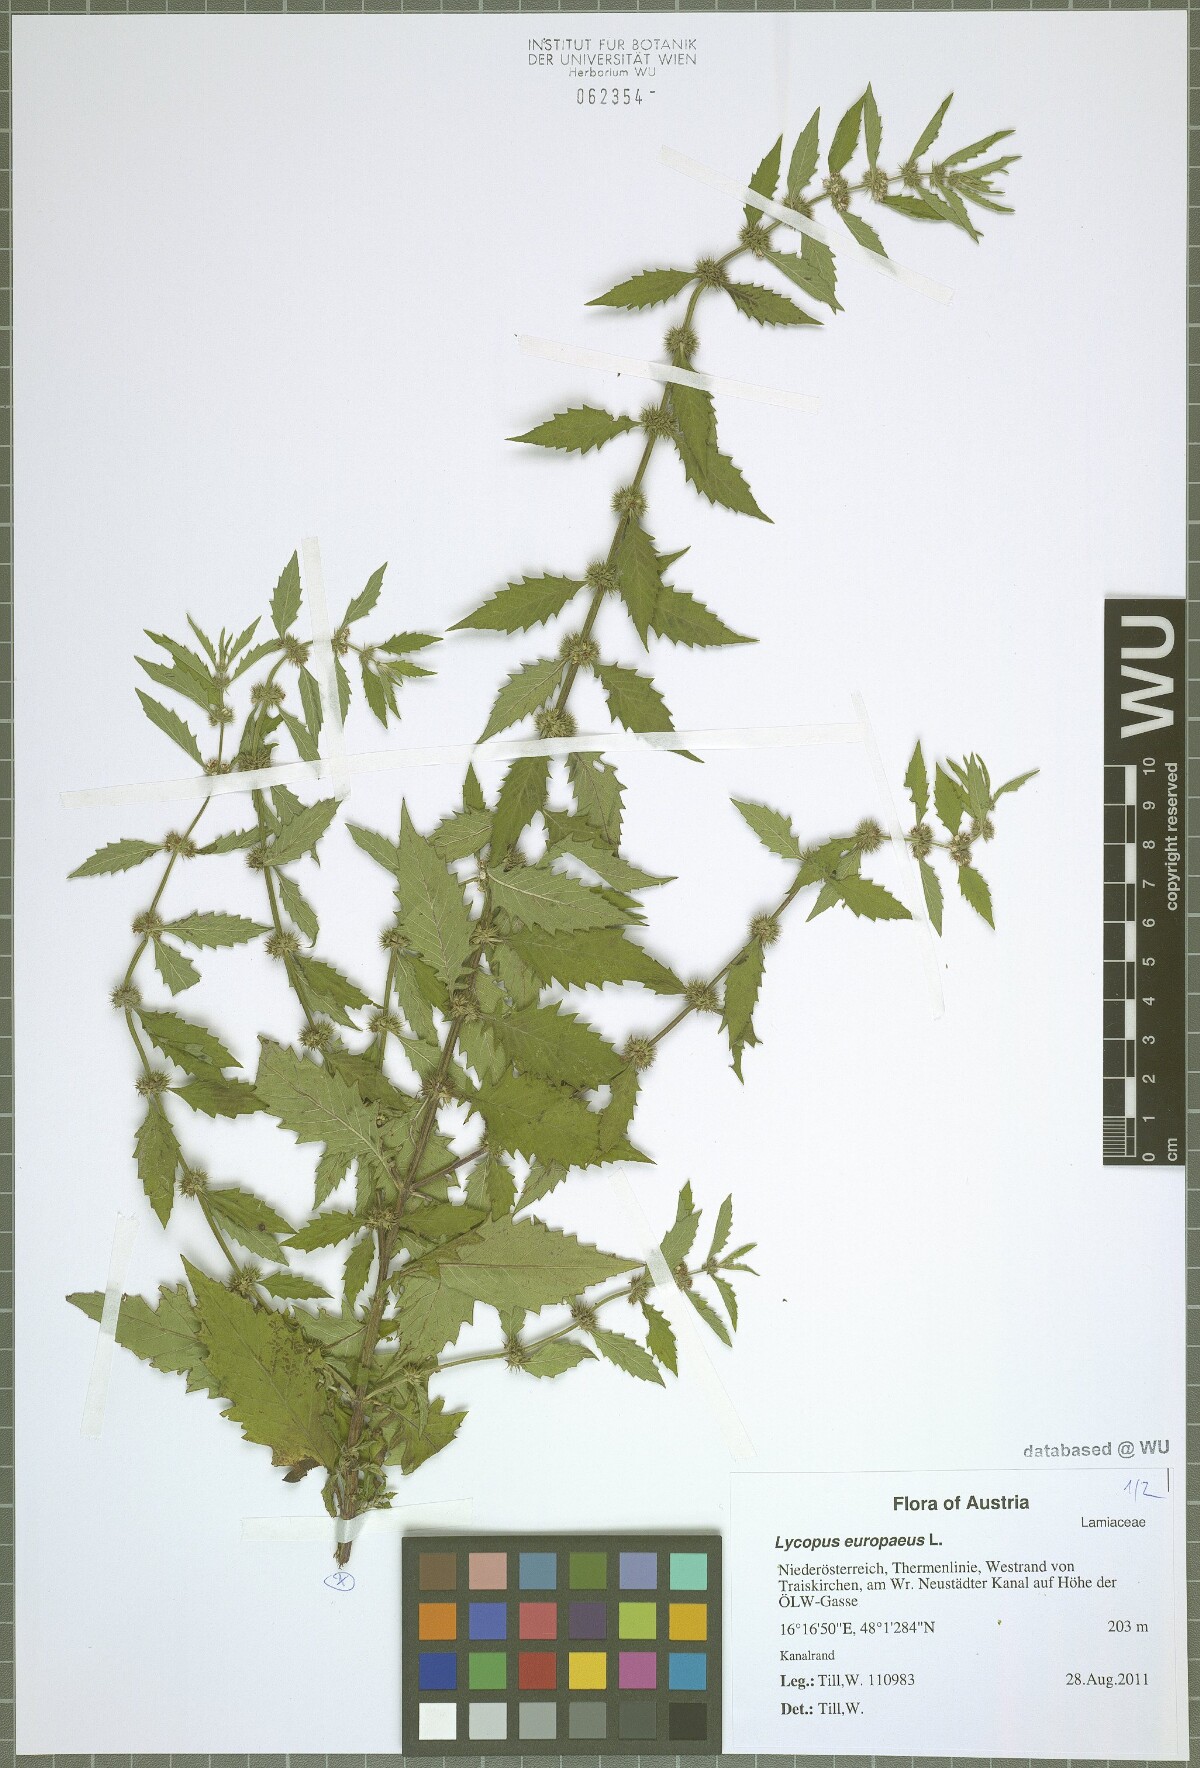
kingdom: Plantae
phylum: Tracheophyta
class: Magnoliopsida
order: Lamiales
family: Lamiaceae
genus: Lycopus
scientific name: Lycopus europaeus
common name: European bugleweed
